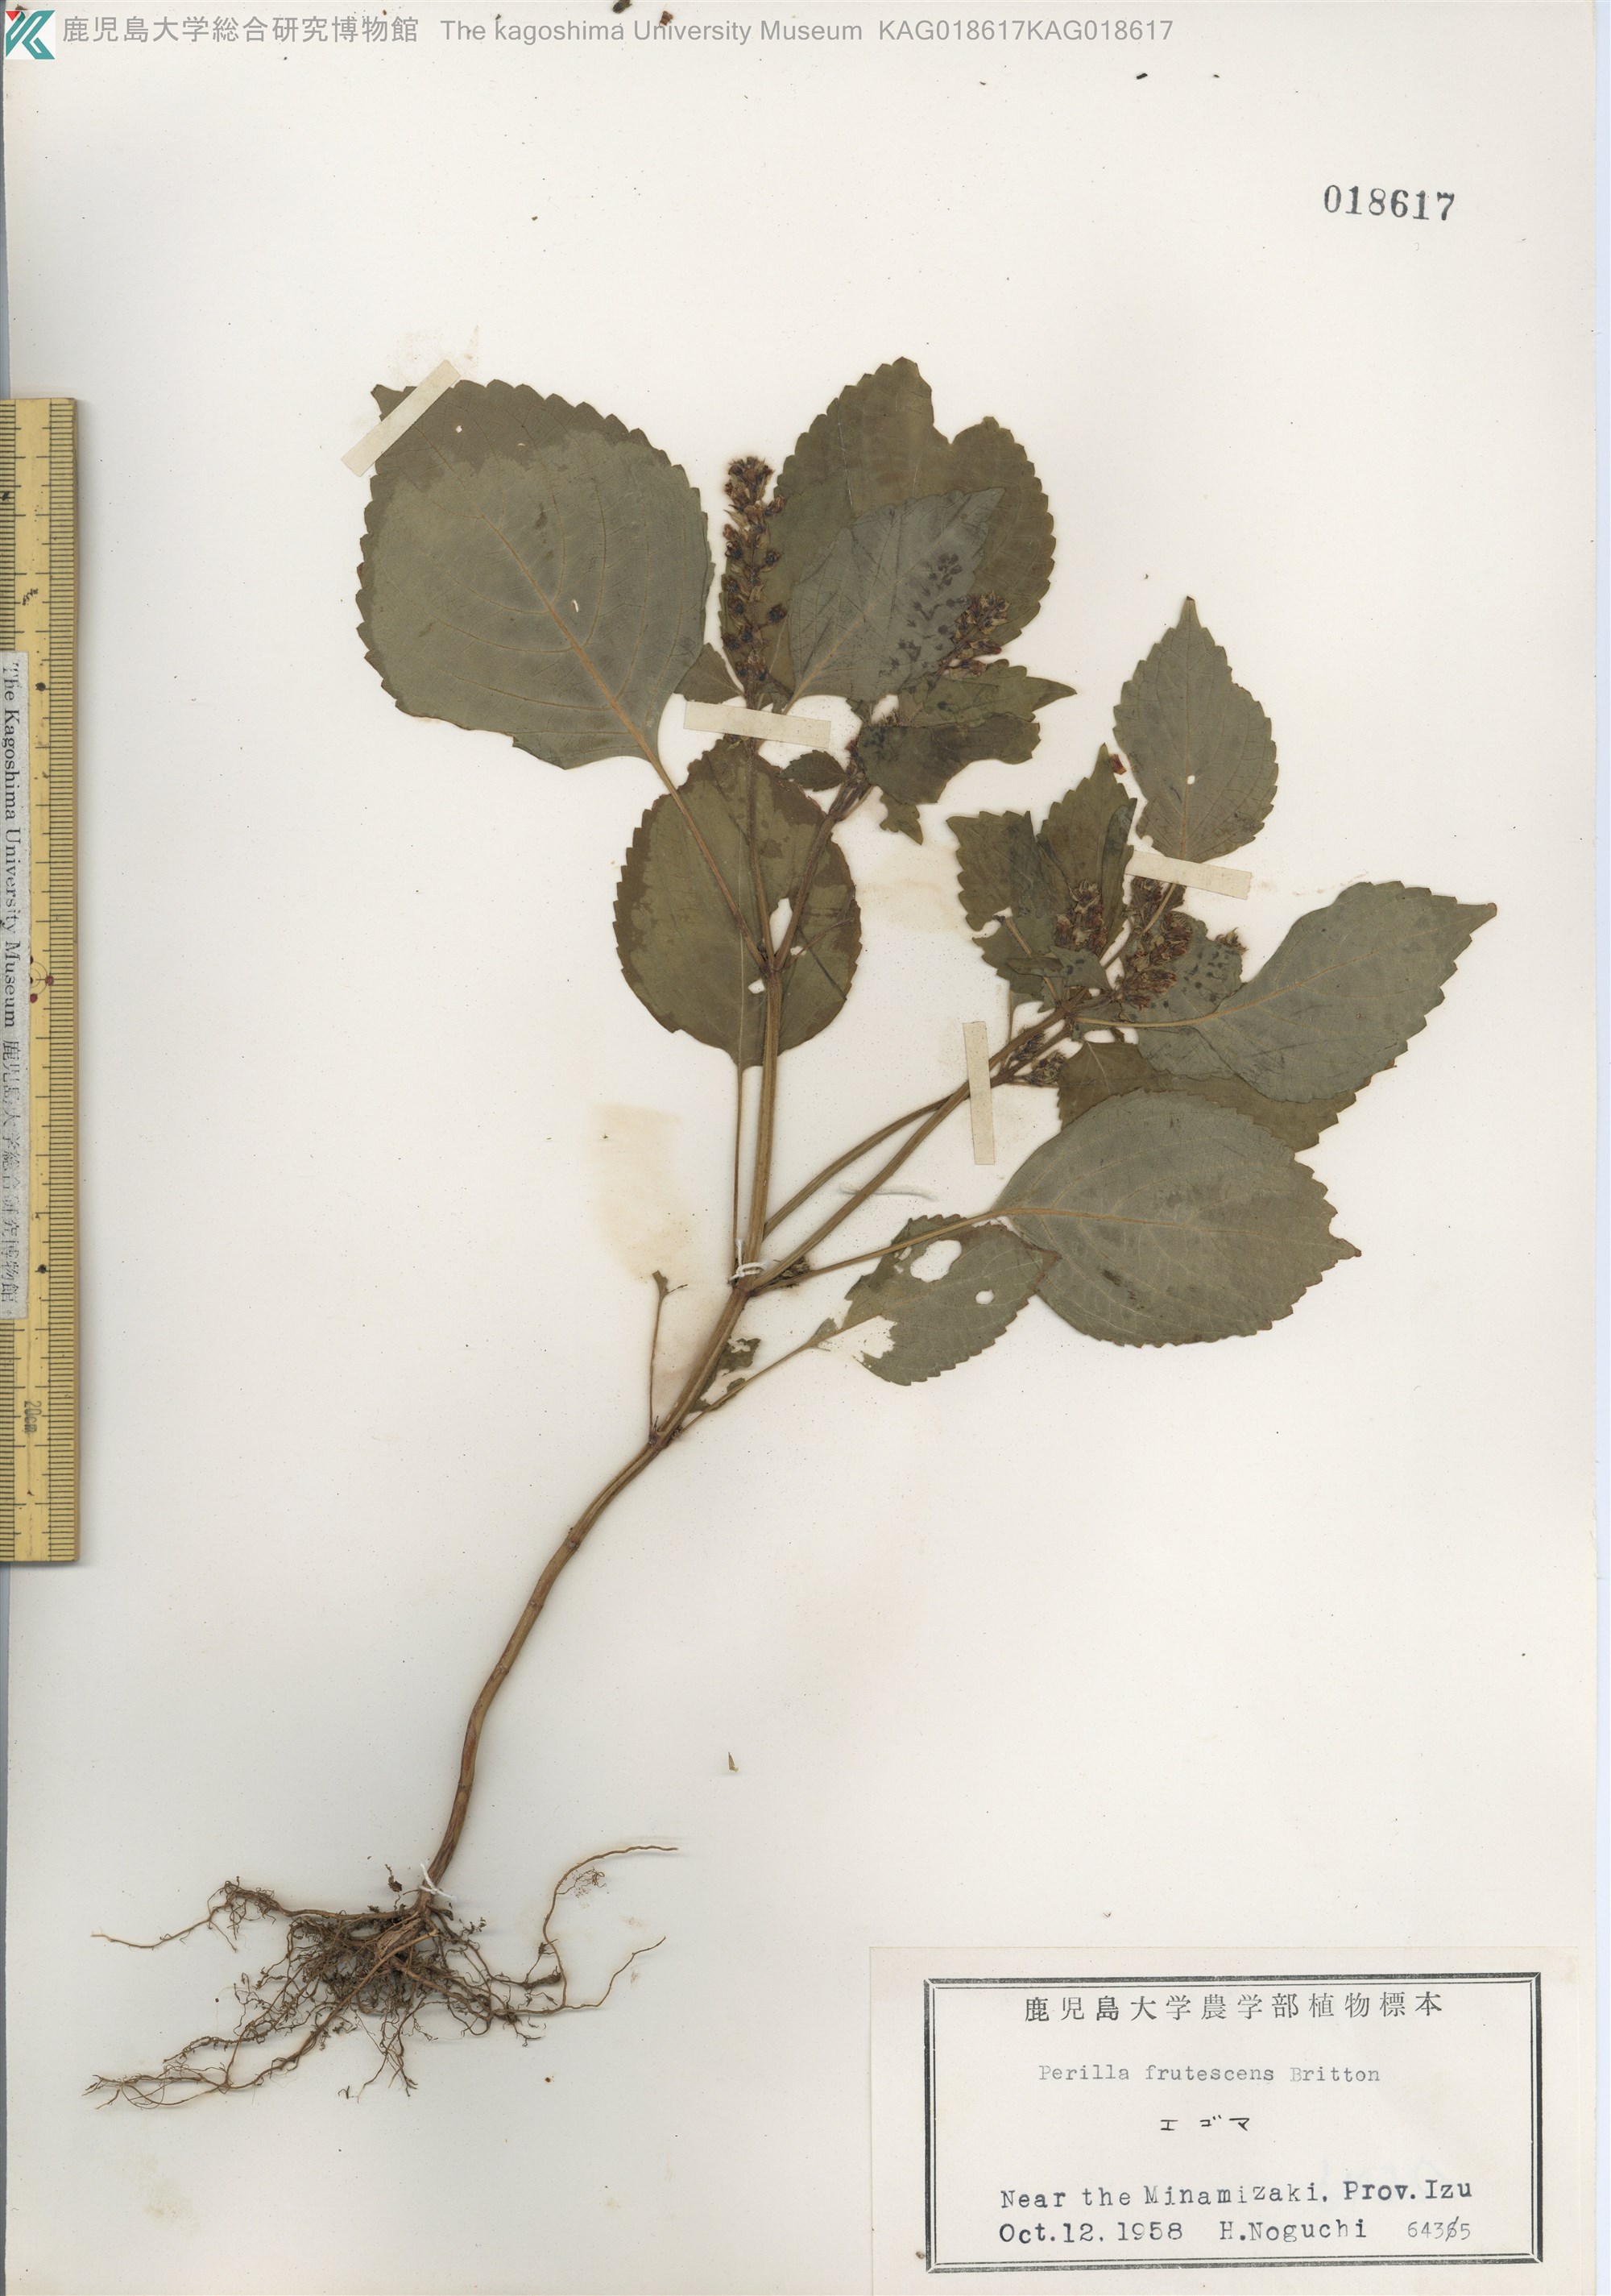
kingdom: Plantae
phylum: Tracheophyta
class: Magnoliopsida
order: Lamiales
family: Lamiaceae
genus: Perilla
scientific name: Perilla frutescens
